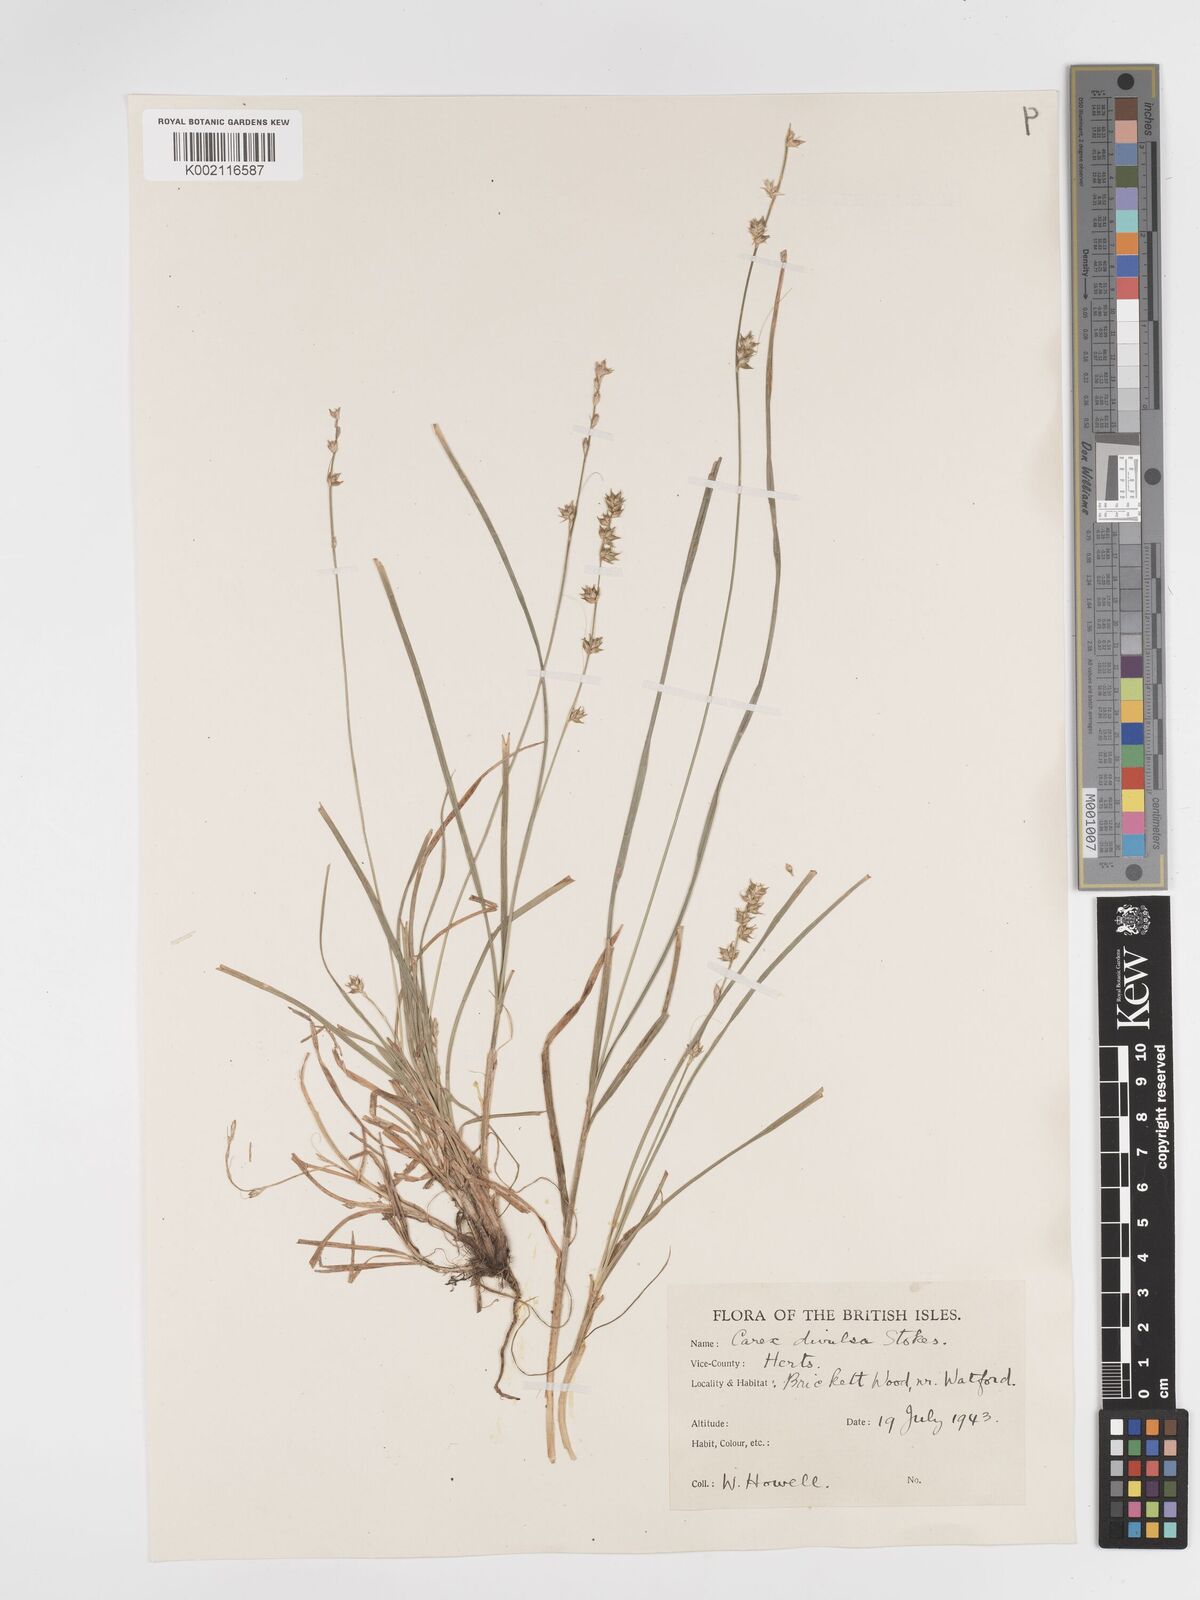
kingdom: Plantae
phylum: Tracheophyta
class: Liliopsida
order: Poales
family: Cyperaceae
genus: Carex
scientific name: Carex divulsa
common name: Grassland sedge
